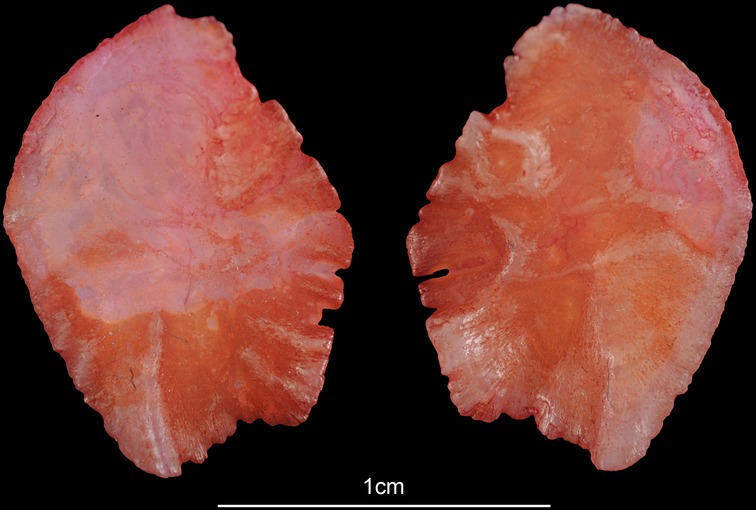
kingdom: Animalia
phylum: Chordata
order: Perciformes
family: Sparidae
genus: Pterogymnus
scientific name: Pterogymnus laniarius
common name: Panga
